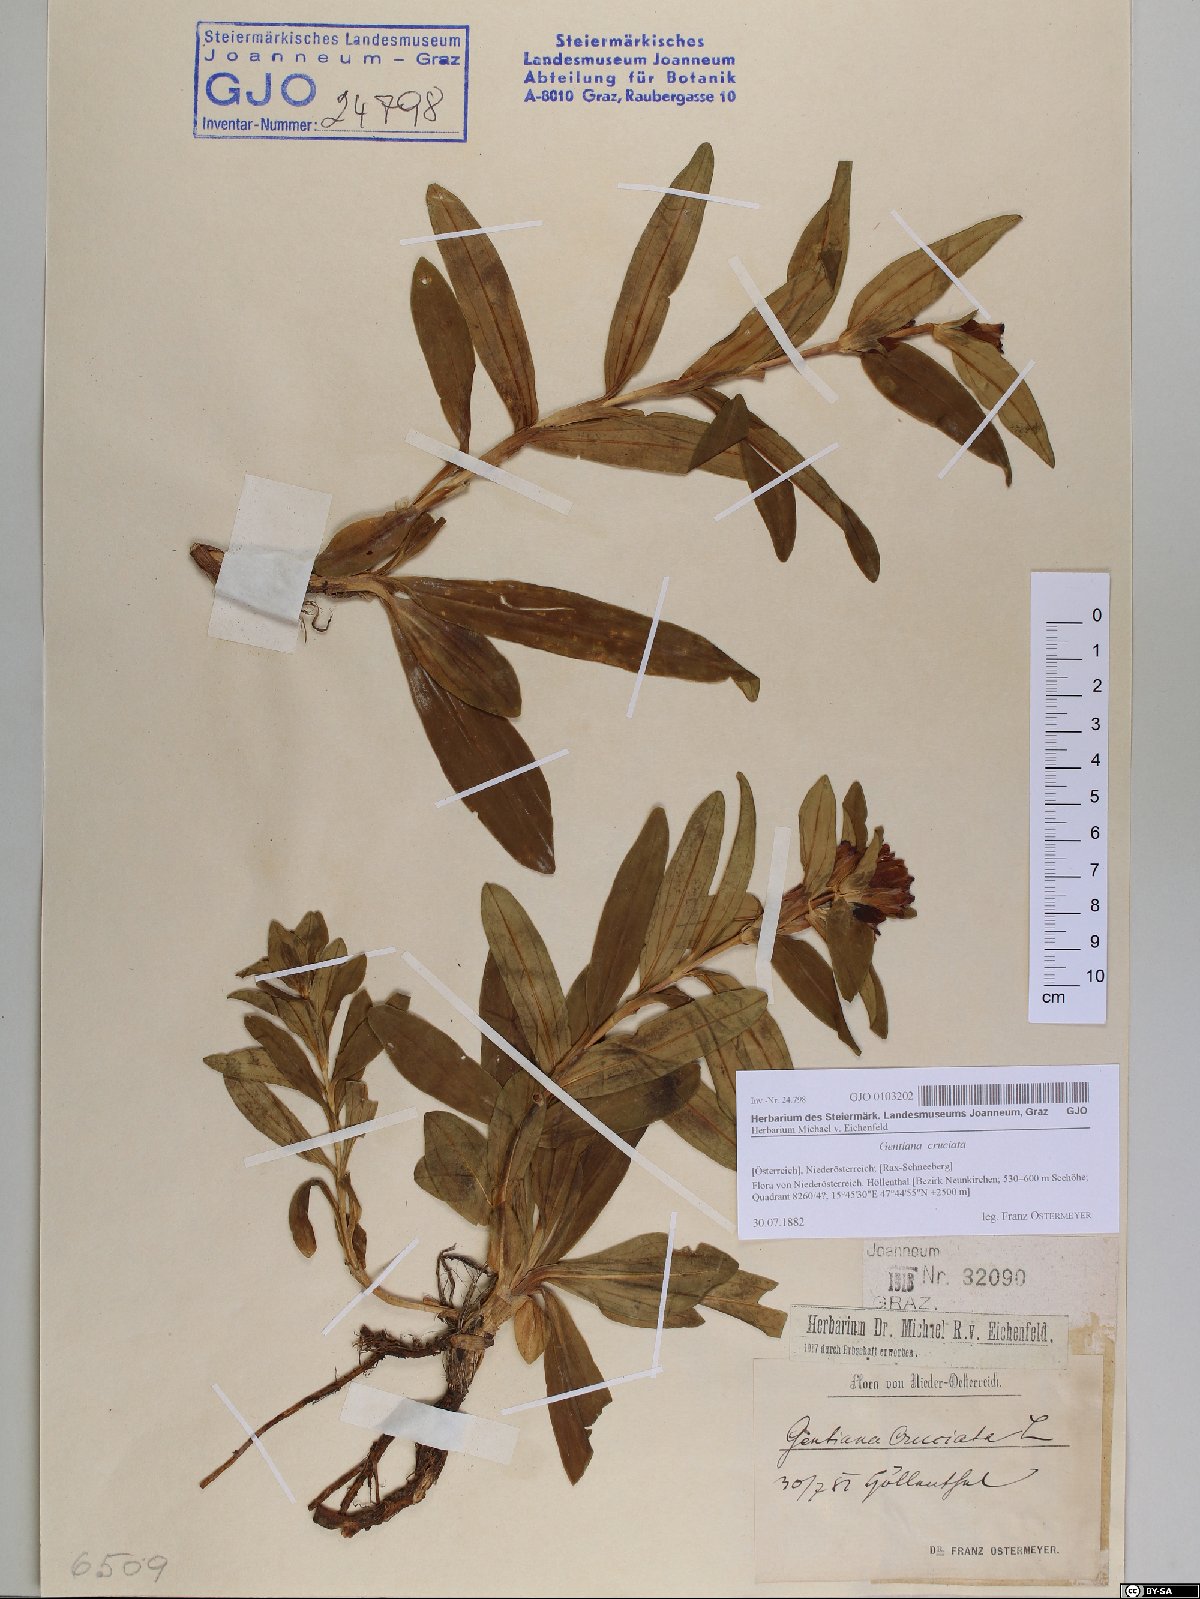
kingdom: Plantae
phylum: Tracheophyta
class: Magnoliopsida
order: Gentianales
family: Gentianaceae
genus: Gentiana
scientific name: Gentiana cruciata
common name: Cross gentian
